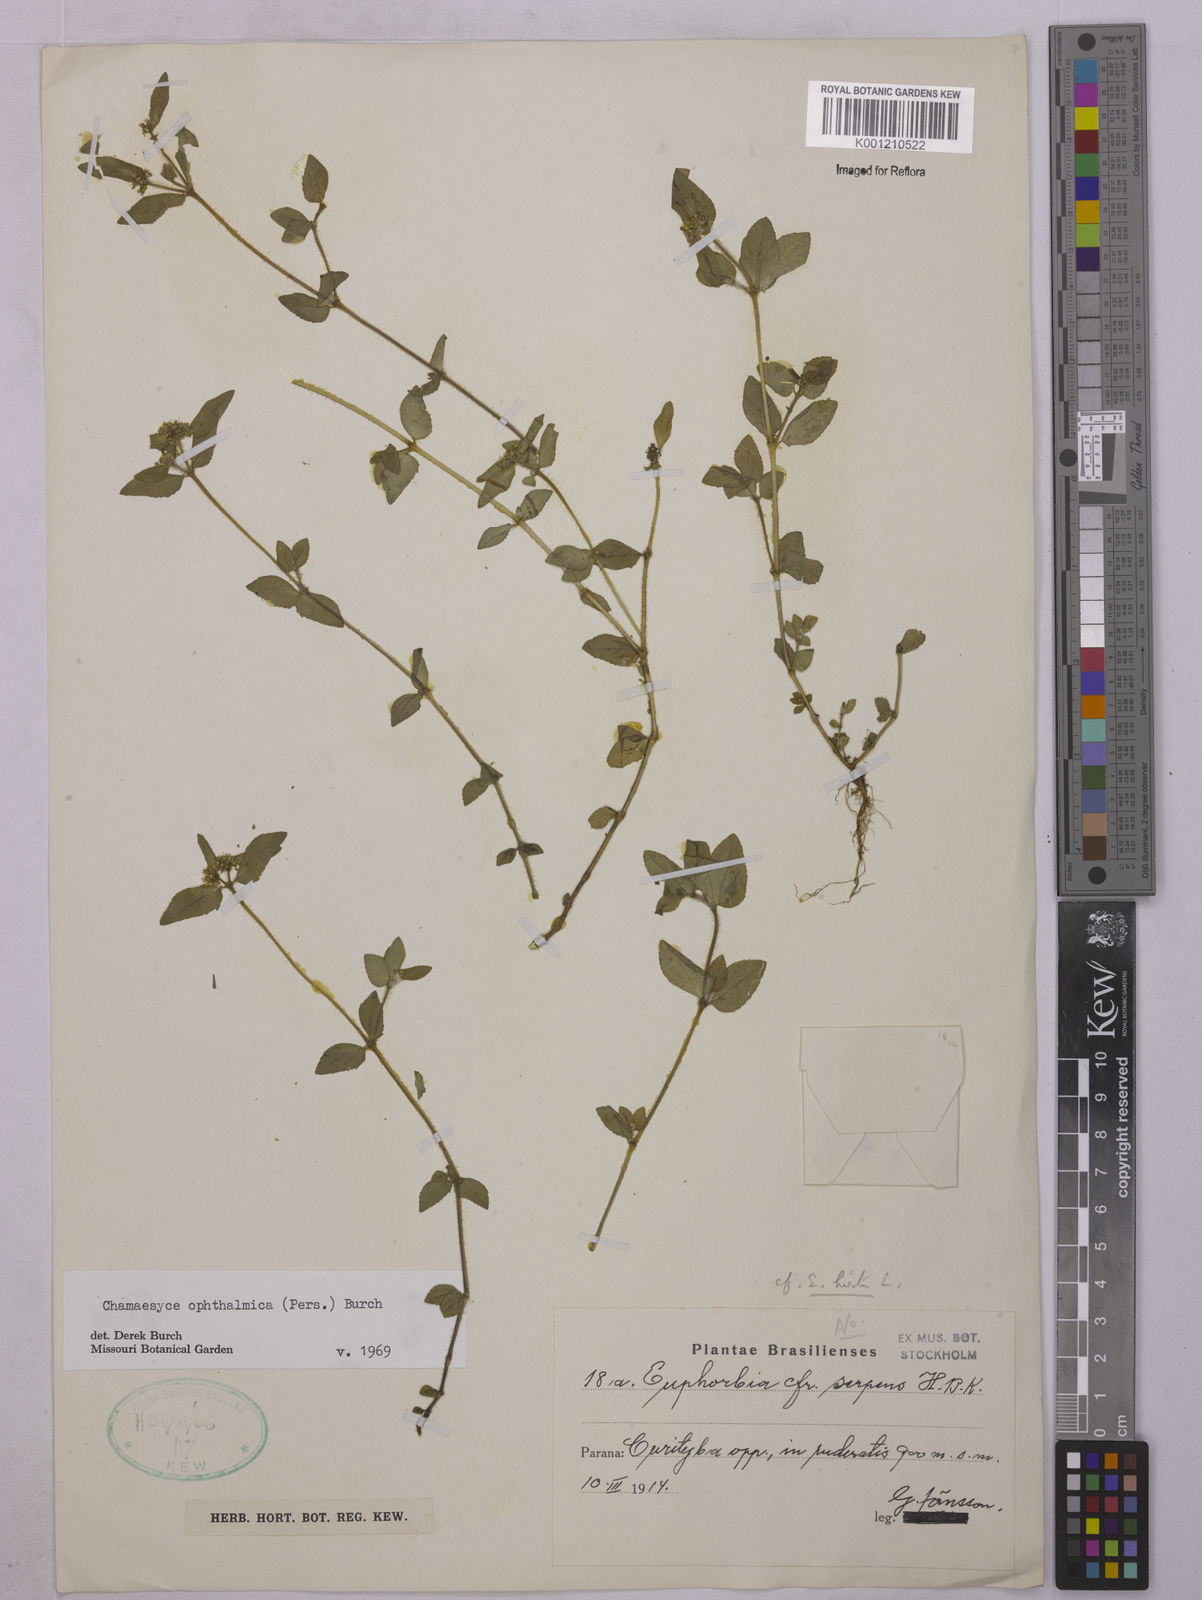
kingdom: Plantae
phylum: Tracheophyta
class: Magnoliopsida
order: Malpighiales
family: Euphorbiaceae
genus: Euphorbia
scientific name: Euphorbia ophthalmica
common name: Florida hammock sandmat
